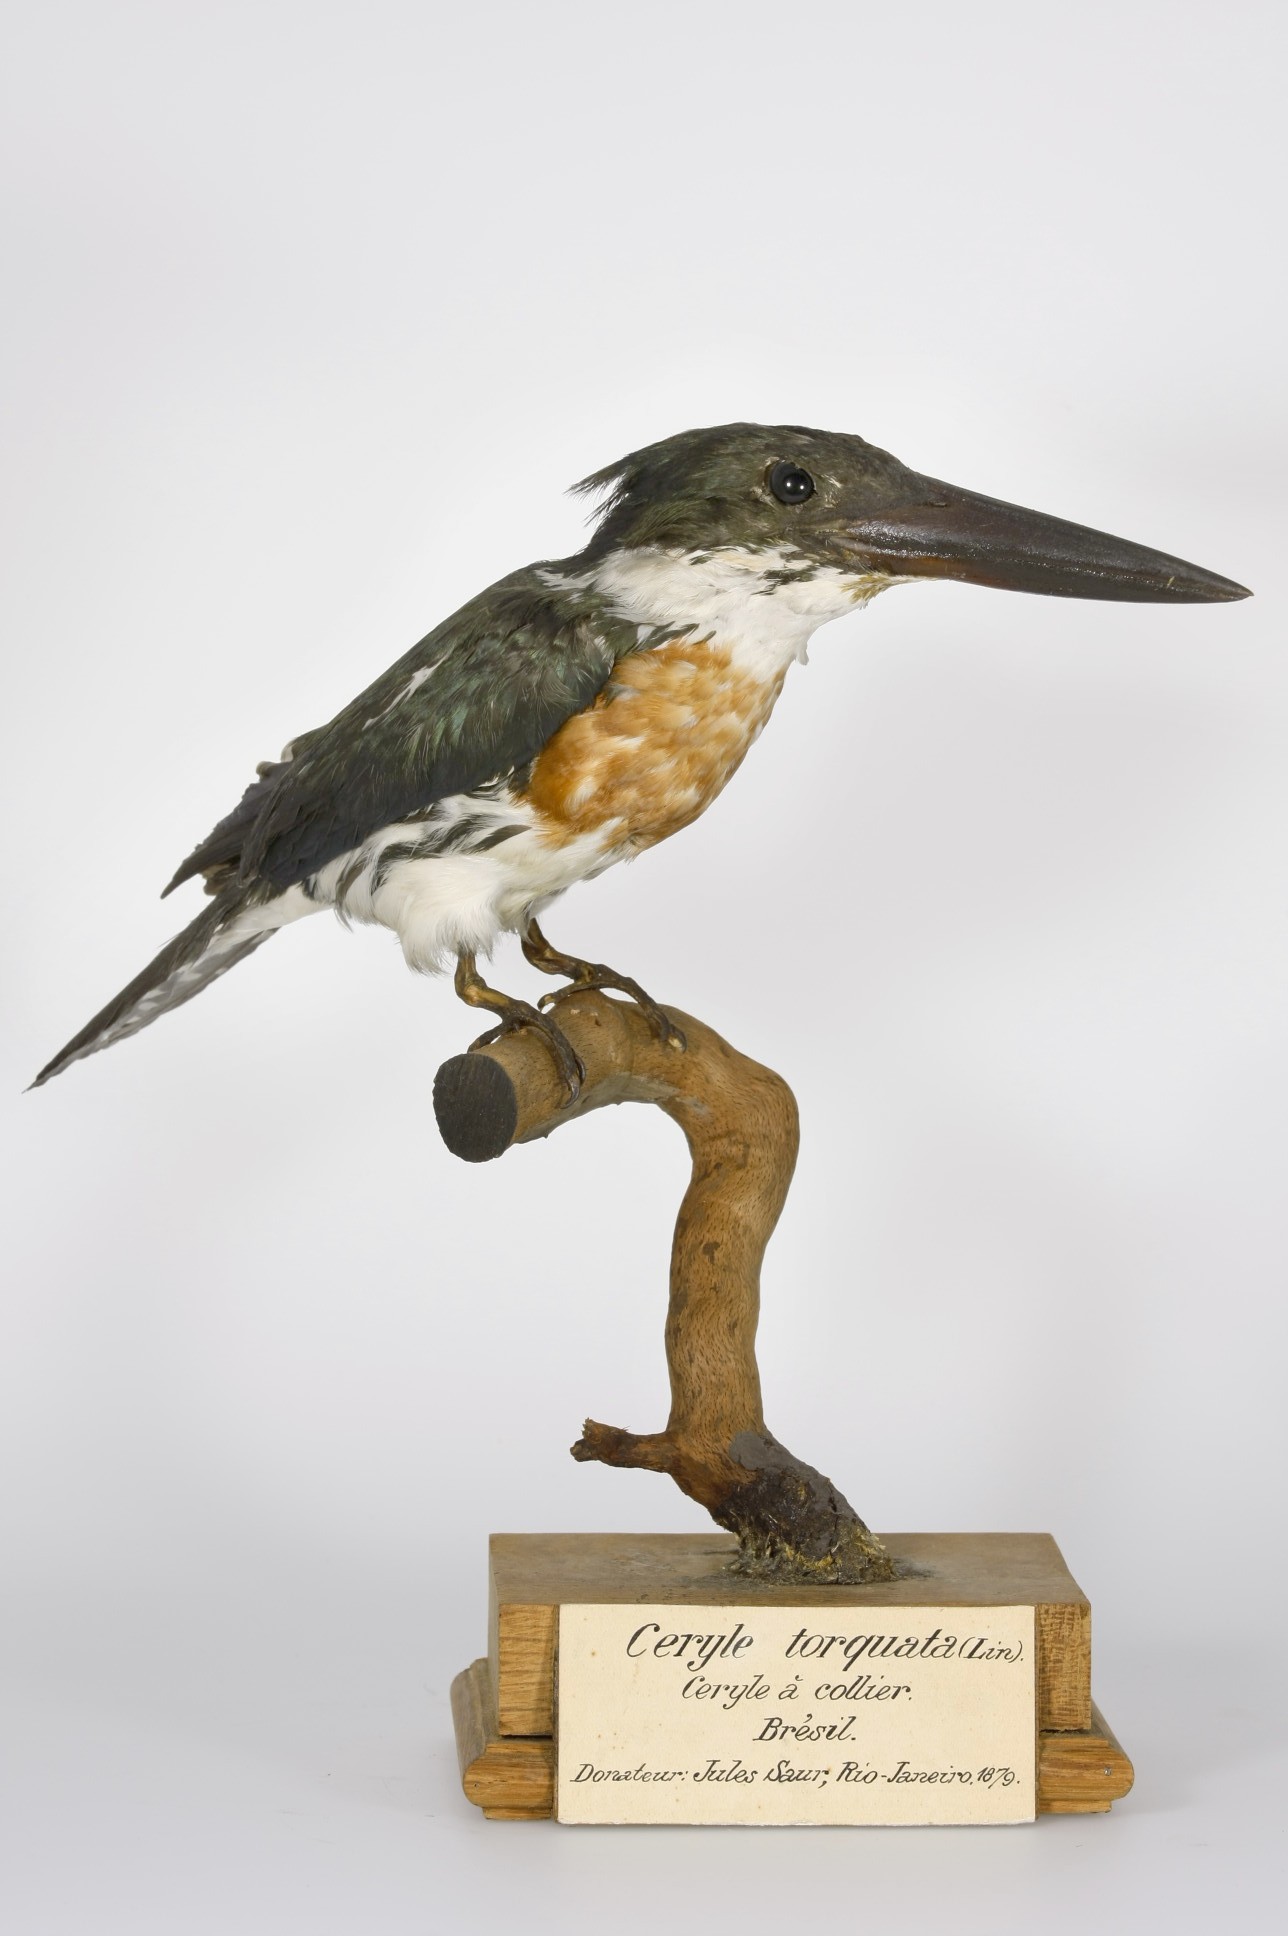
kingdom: Animalia
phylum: Chordata
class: Aves
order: Coraciiformes
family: Alcedinidae
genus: Chloroceryle
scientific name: Chloroceryle amazona
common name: Amazon kingfisher
